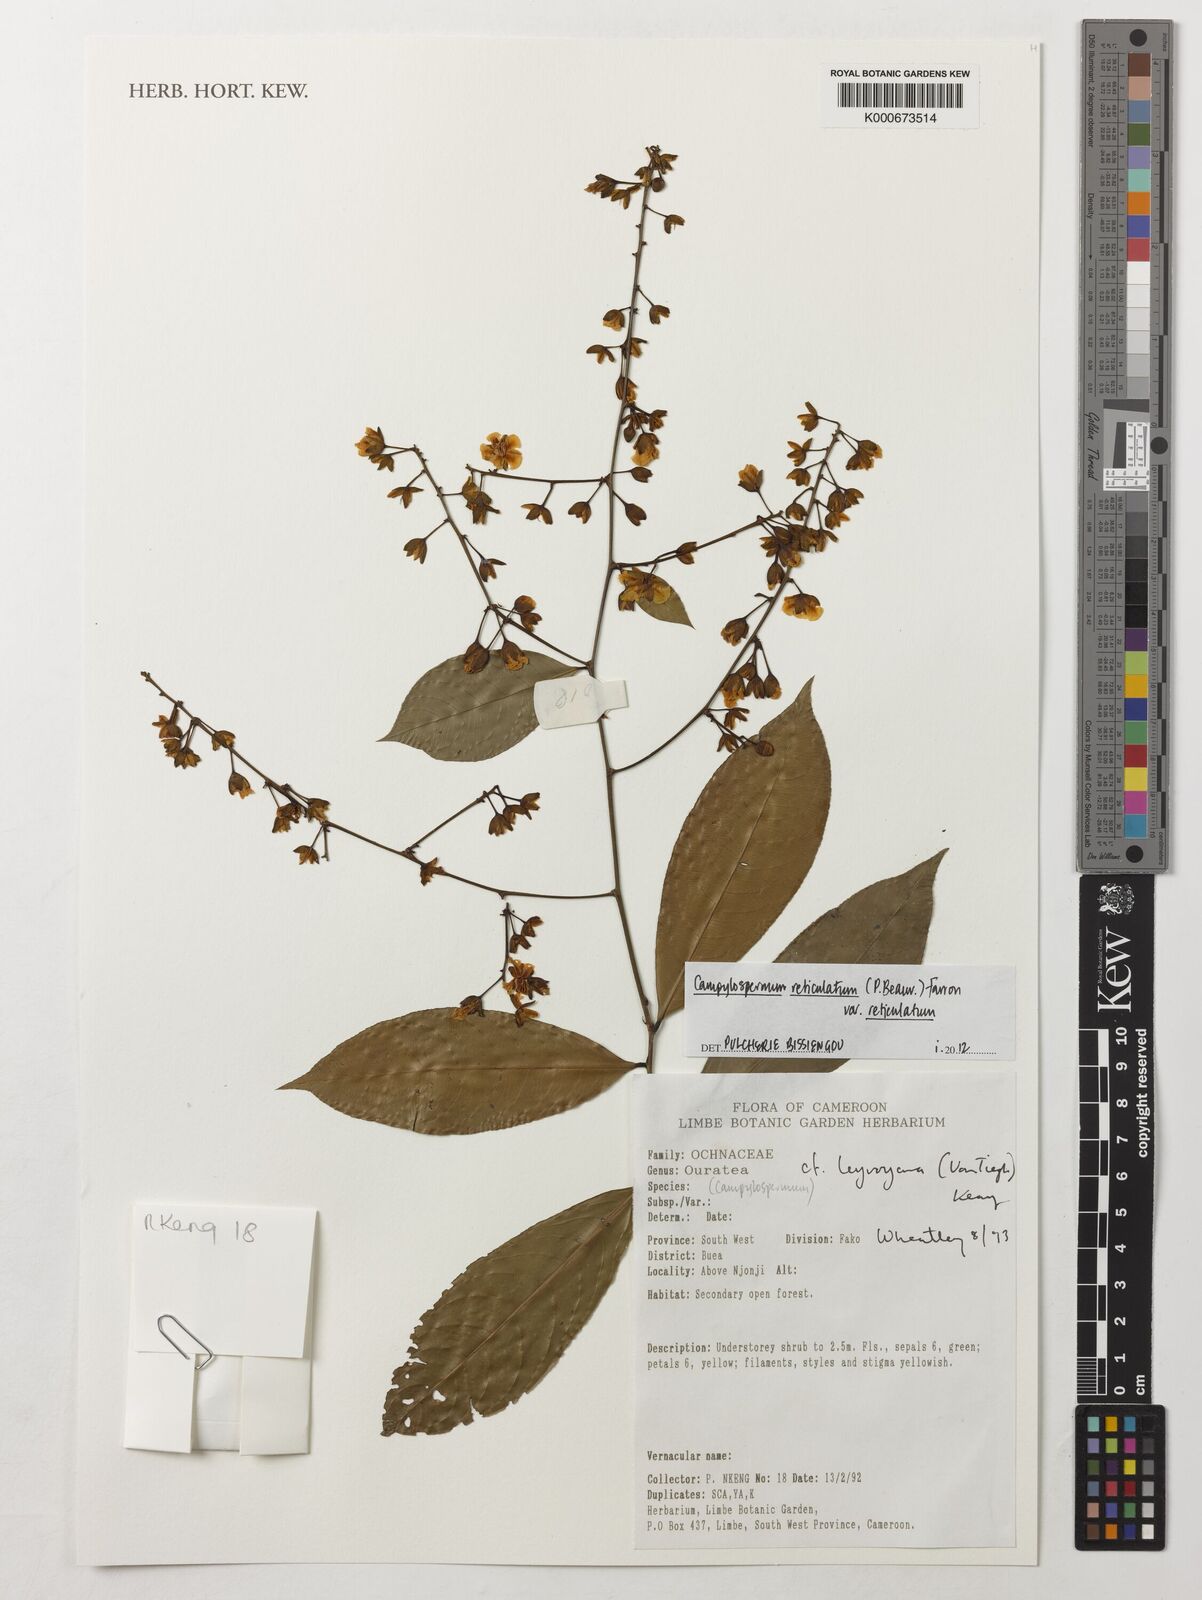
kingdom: Plantae
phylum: Tracheophyta
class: Magnoliopsida
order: Malpighiales
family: Ochnaceae
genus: Campylospermum
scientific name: Campylospermum reticulatum
